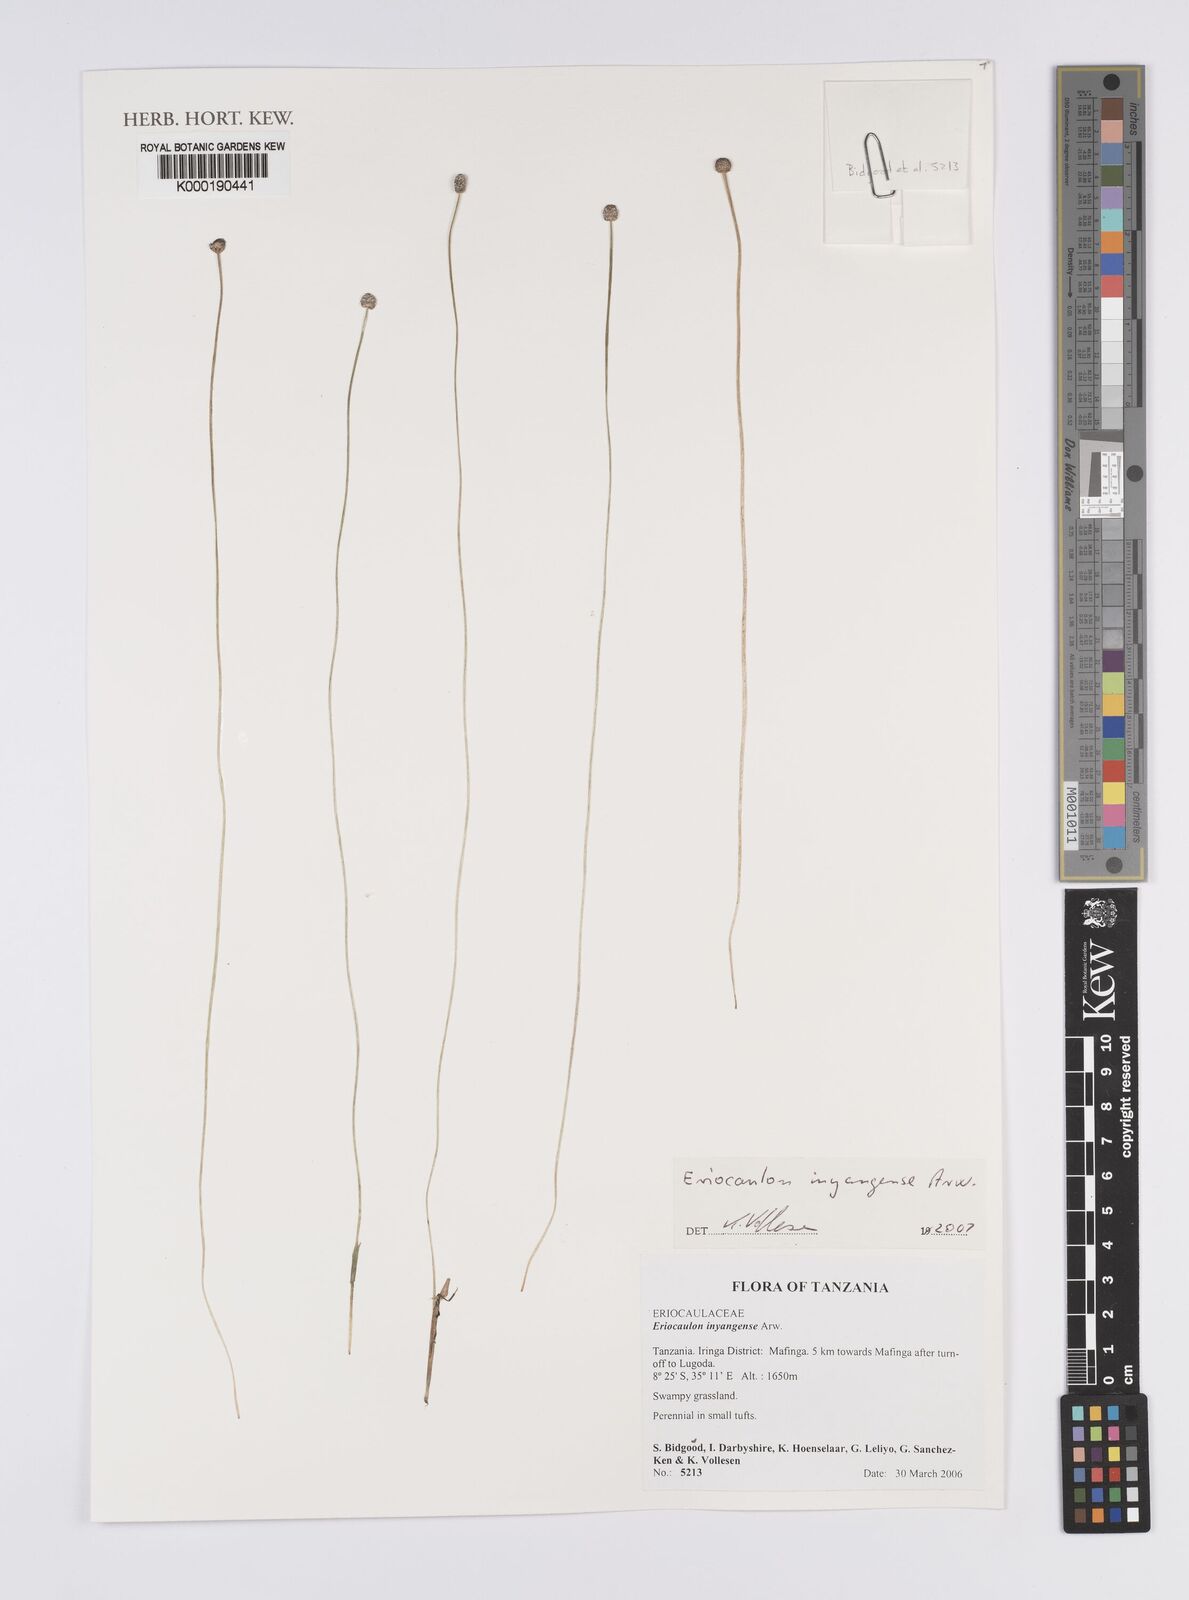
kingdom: Plantae
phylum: Tracheophyta
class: Liliopsida
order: Poales
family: Eriocaulaceae
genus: Eriocaulon
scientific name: Eriocaulon inyangense
